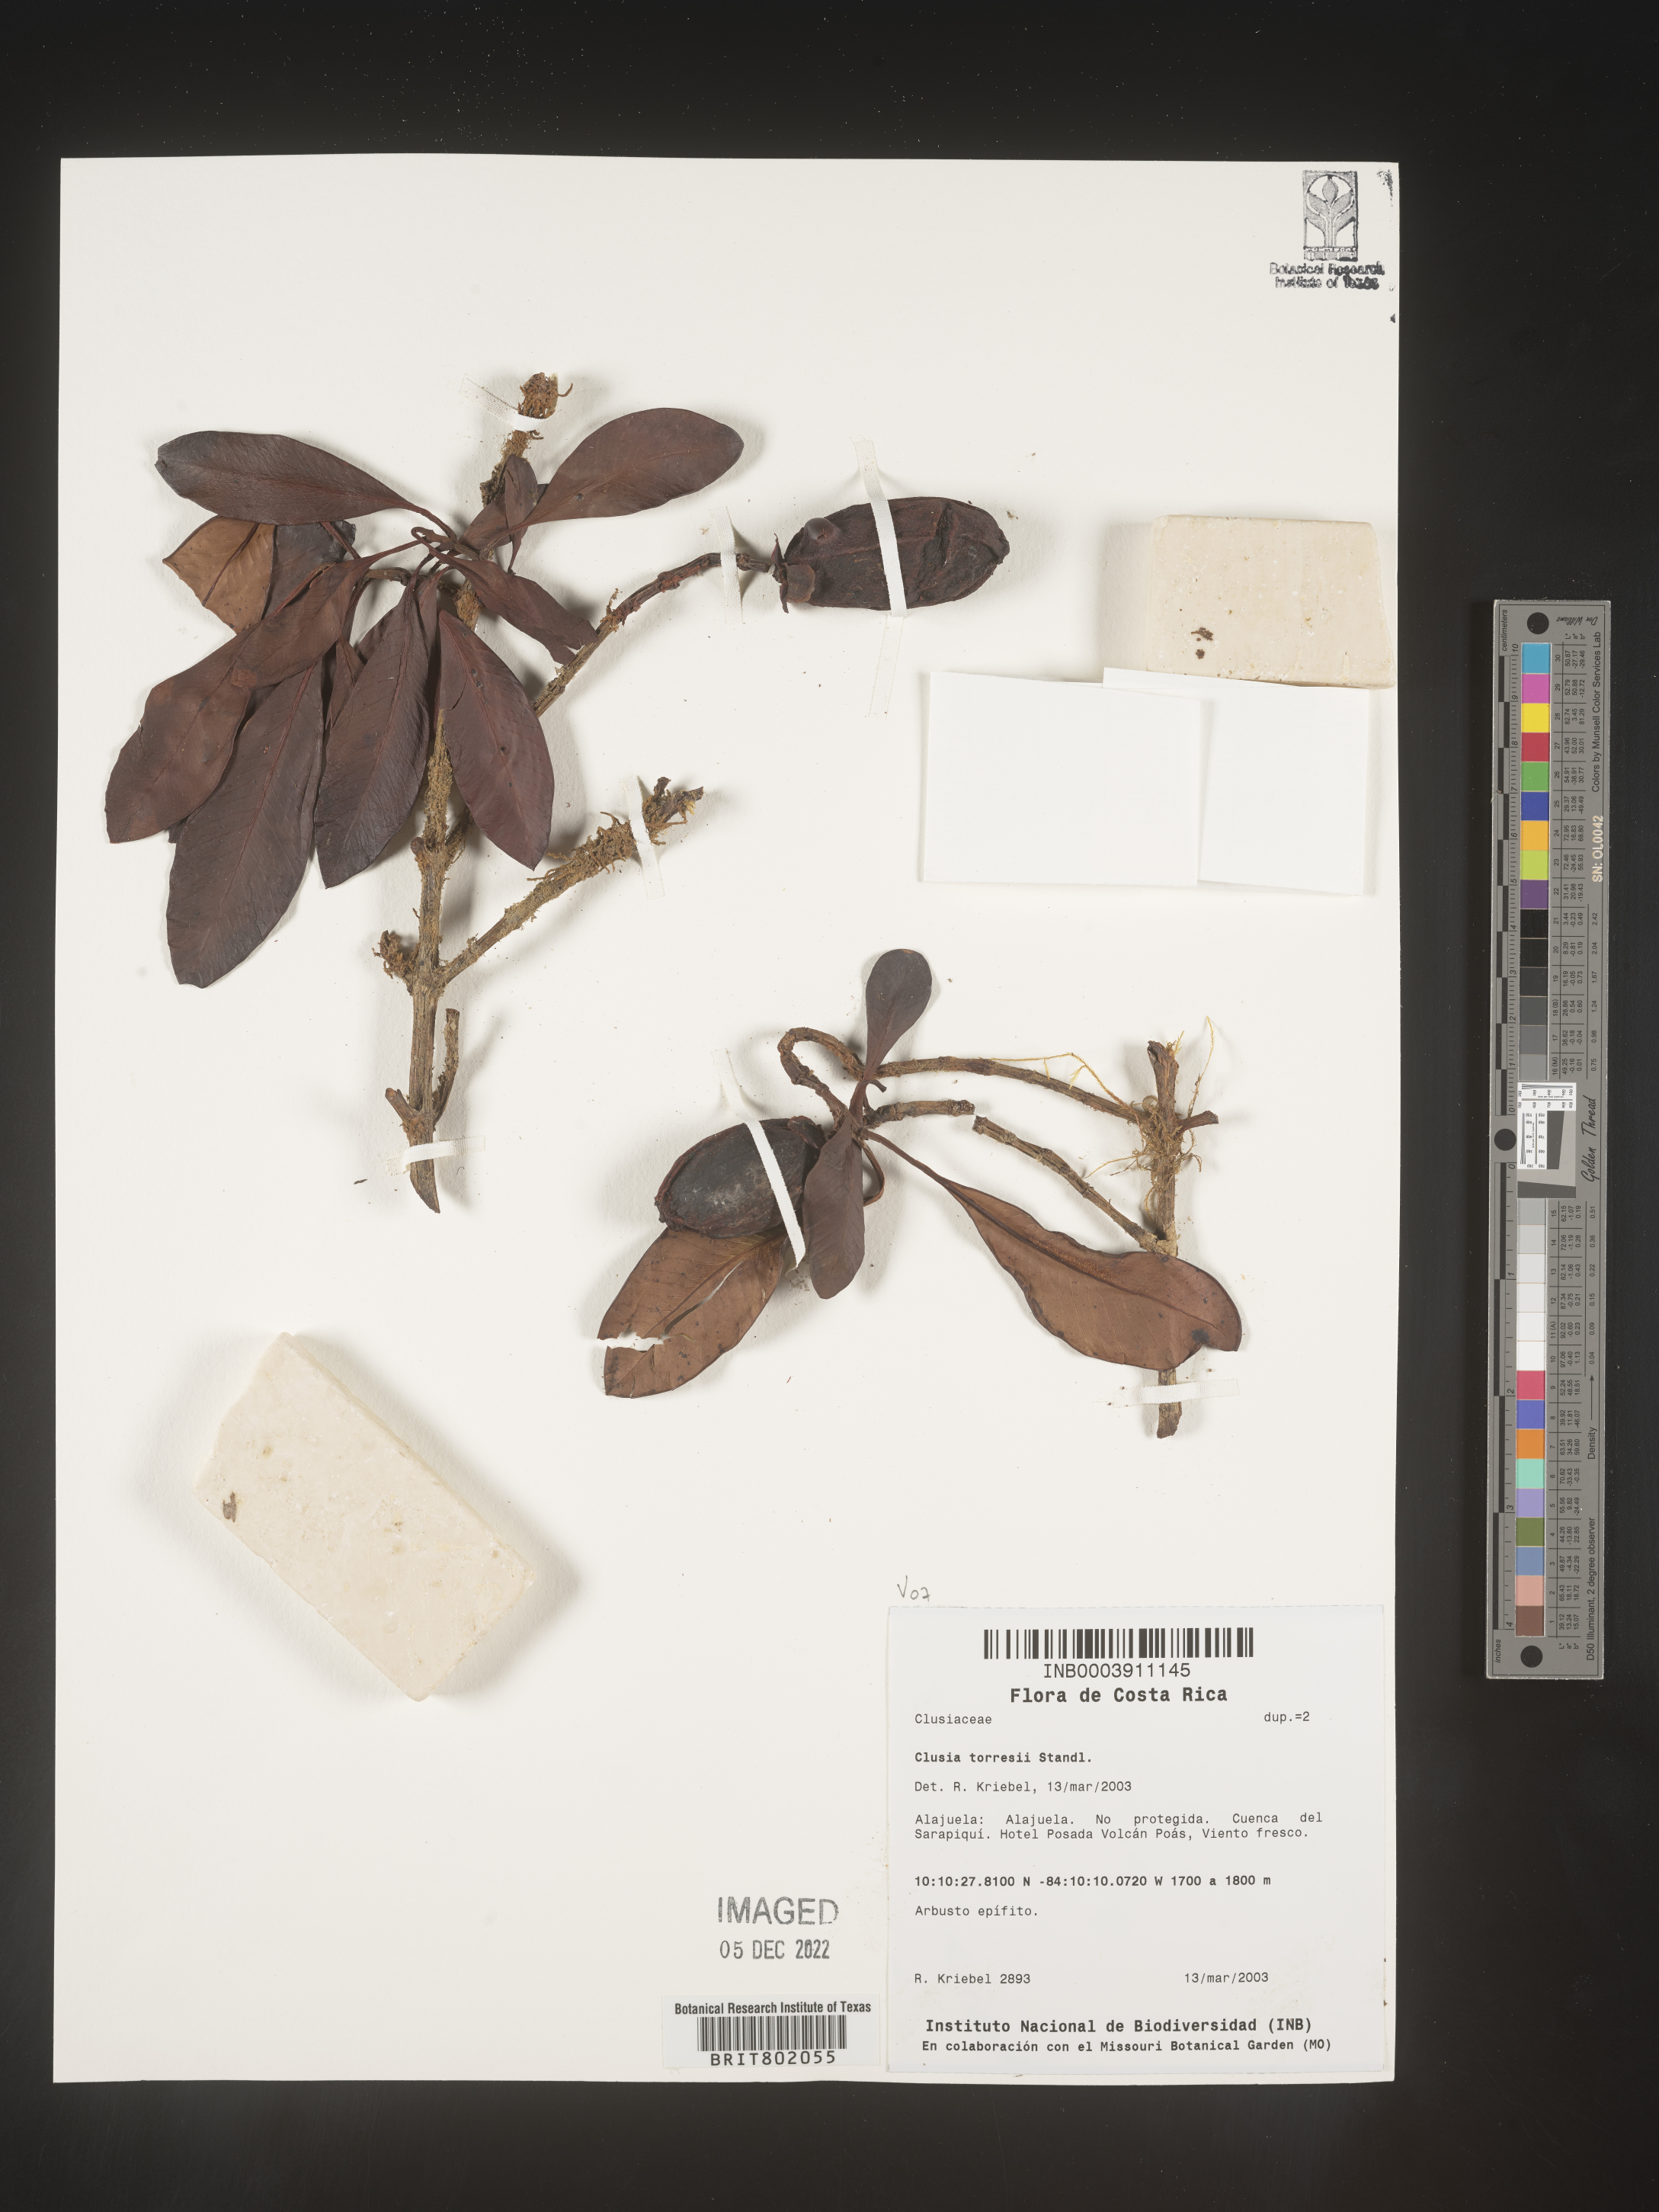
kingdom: Plantae
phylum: Tracheophyta
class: Magnoliopsida
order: Malpighiales
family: Clusiaceae
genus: Clusia
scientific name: Clusia
